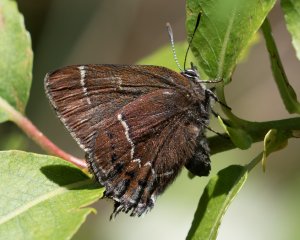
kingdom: Animalia
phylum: Arthropoda
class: Insecta
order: Lepidoptera
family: Lycaenidae
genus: Mitoura
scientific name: Mitoura spinetorum
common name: Thicket Hairstreak
